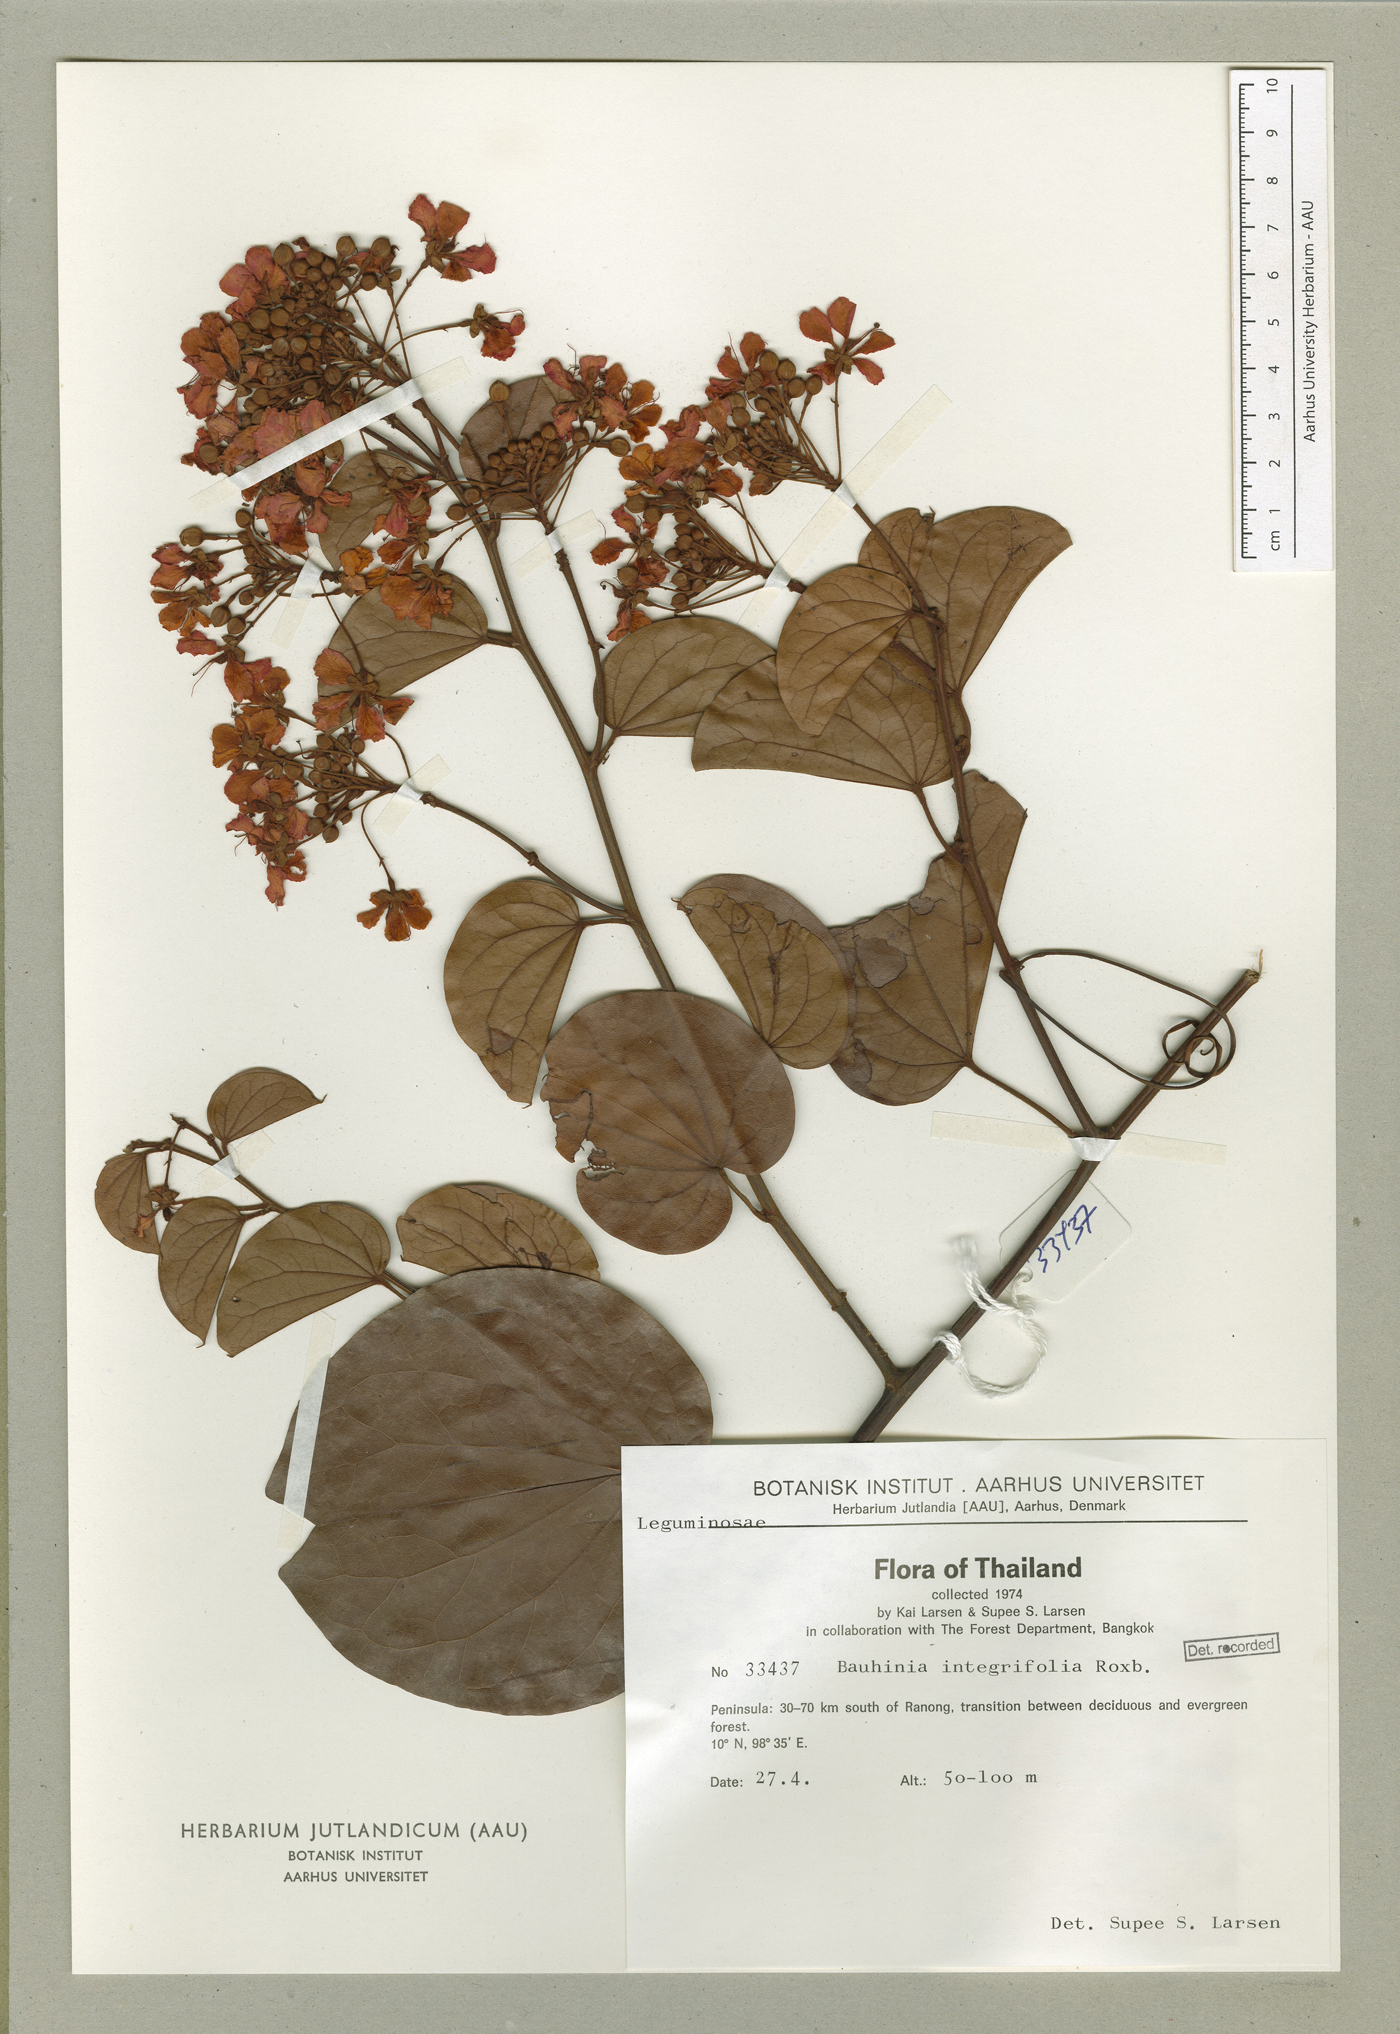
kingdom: Plantae
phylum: Tracheophyta
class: Magnoliopsida
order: Fabales
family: Fabaceae
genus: Phanera
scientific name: Phanera integrifolia
